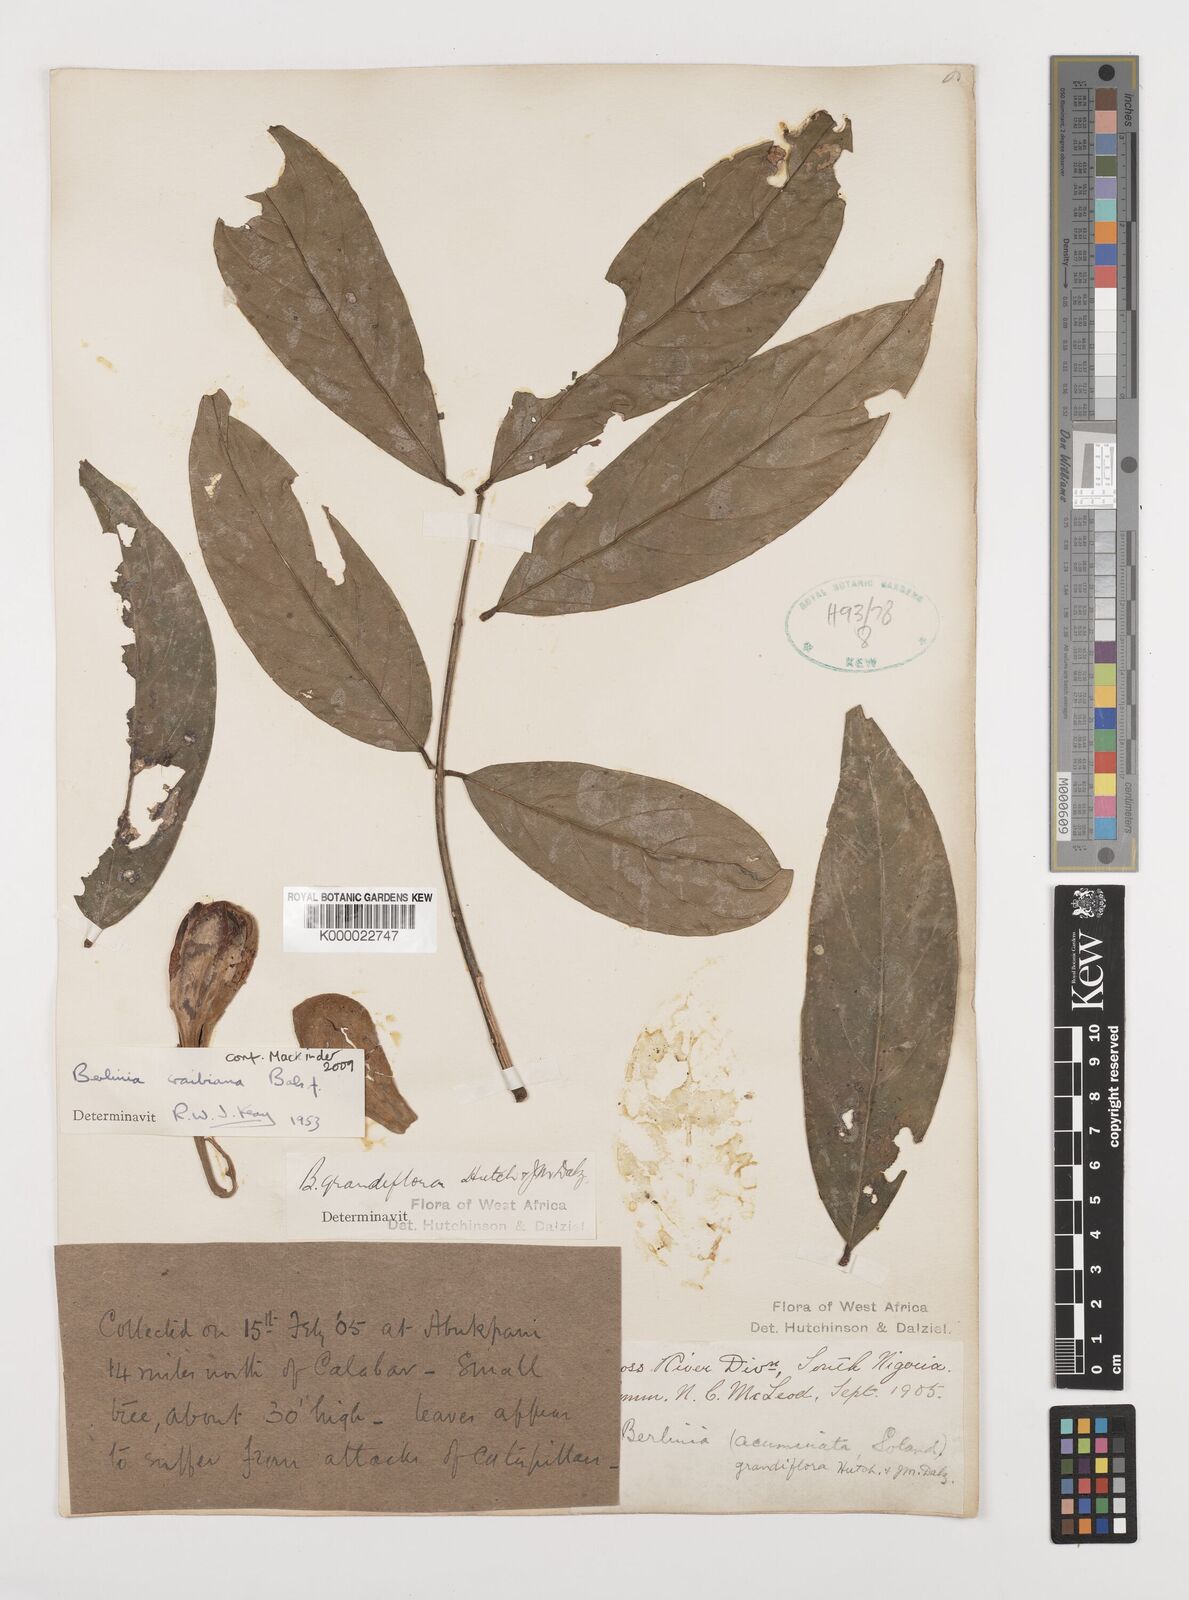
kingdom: Plantae
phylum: Tracheophyta
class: Magnoliopsida
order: Fabales
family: Fabaceae
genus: Berlinia
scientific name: Berlinia craibiana
